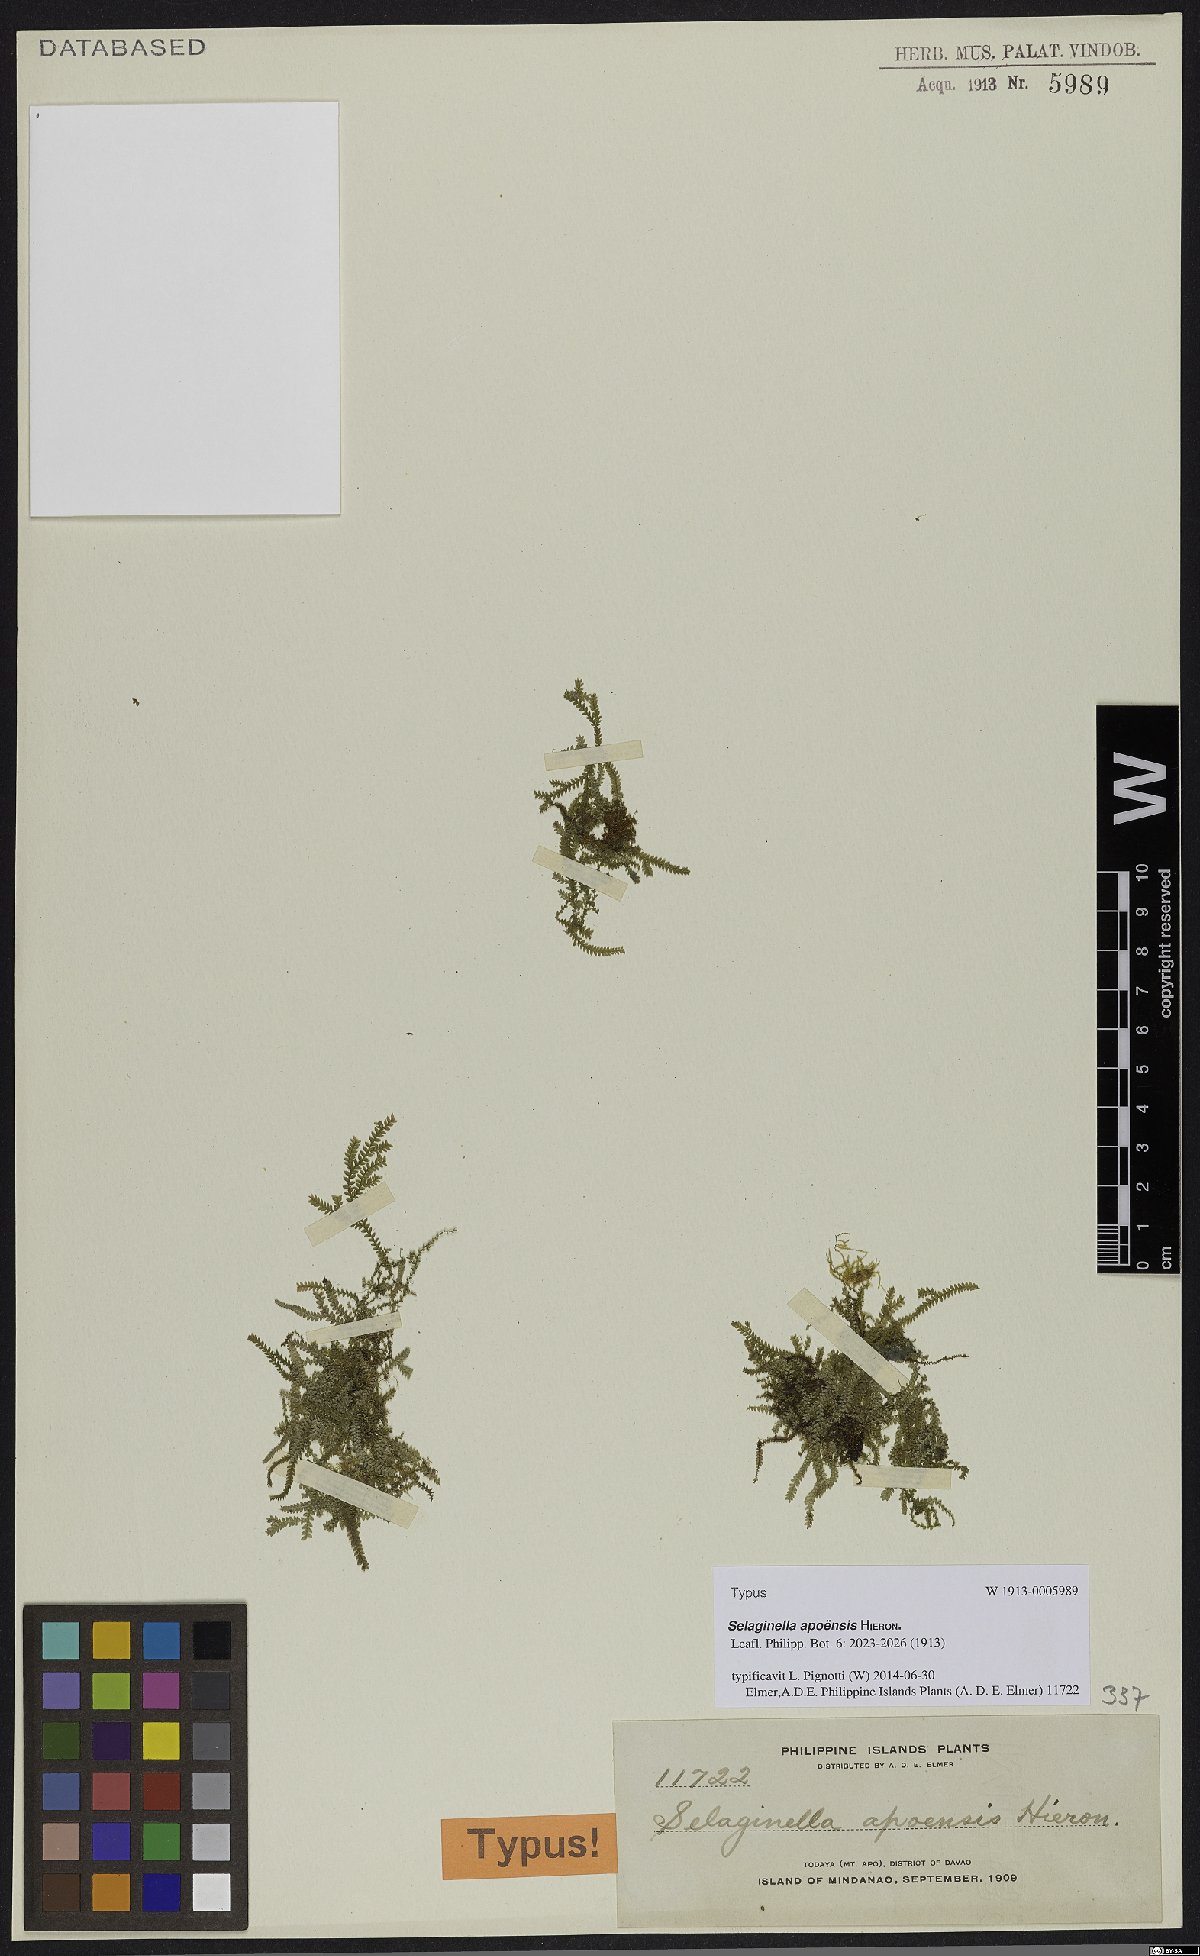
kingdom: Plantae
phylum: Tracheophyta
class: Lycopodiopsida
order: Selaginellales
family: Selaginellaceae
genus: Selaginella
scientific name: Selaginella apoensis
